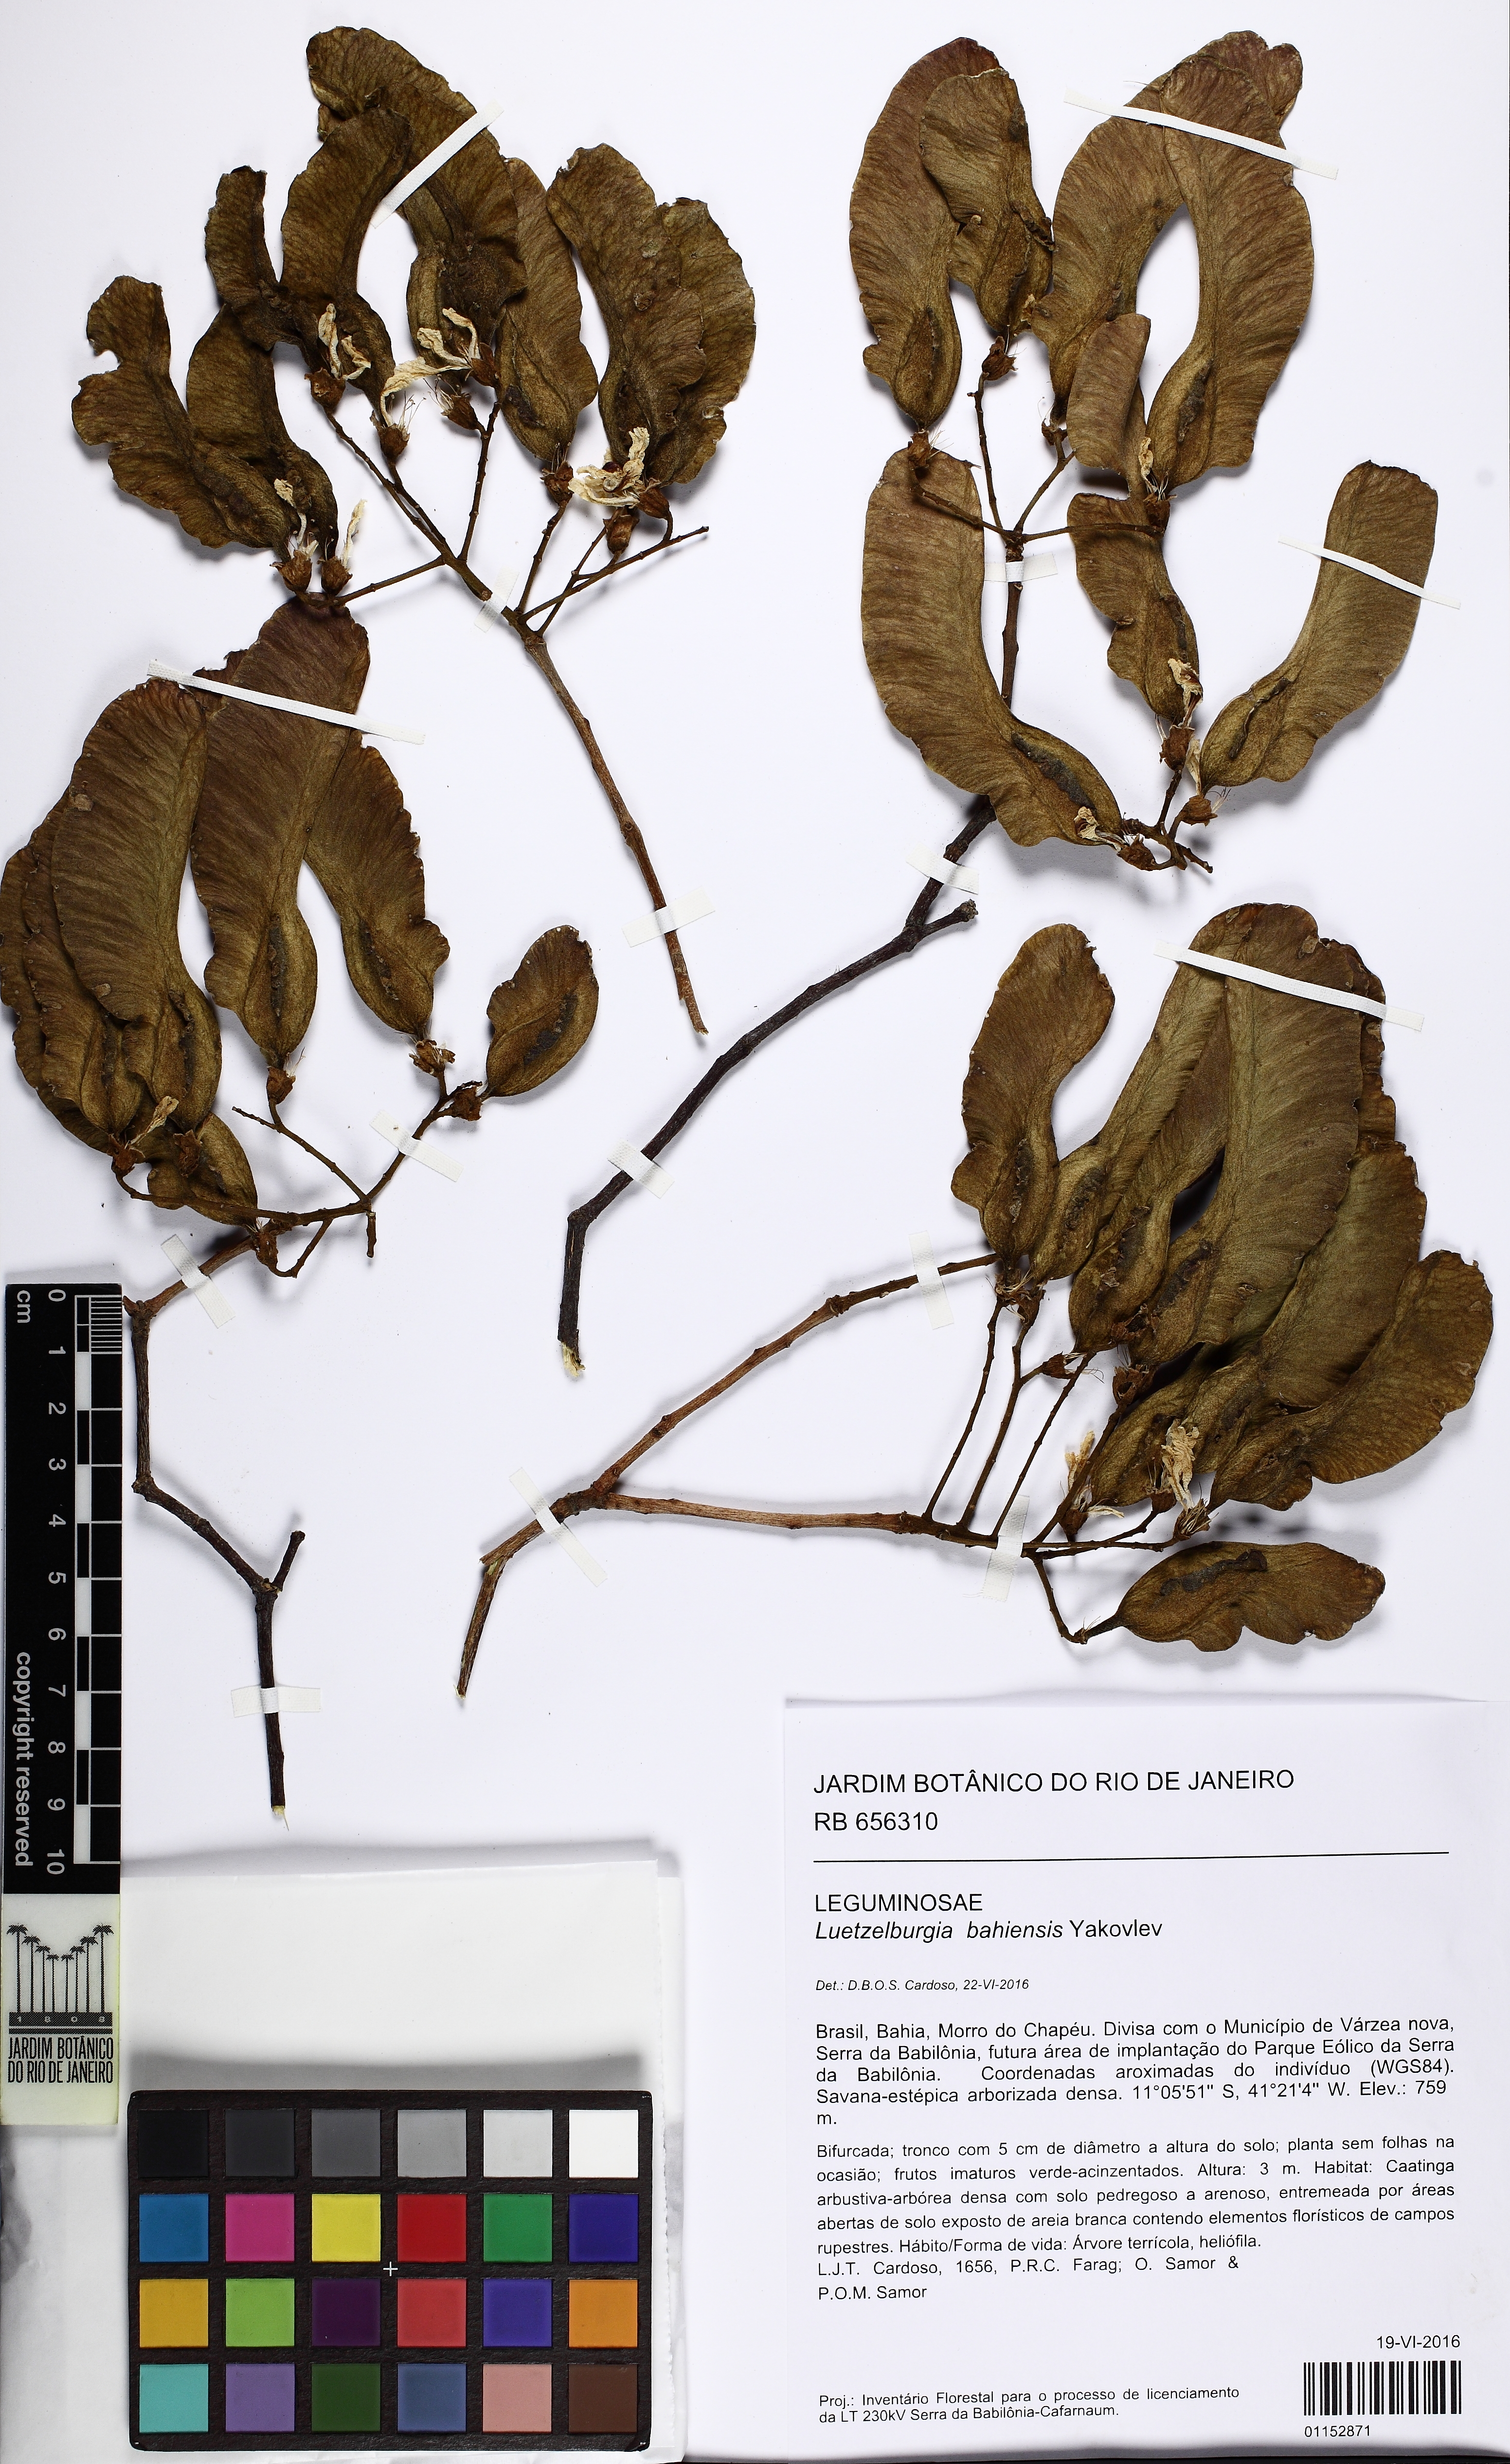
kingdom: Plantae
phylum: Tracheophyta
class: Magnoliopsida
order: Fabales
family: Fabaceae
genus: Luetzelburgia
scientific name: Luetzelburgia bahiensis
